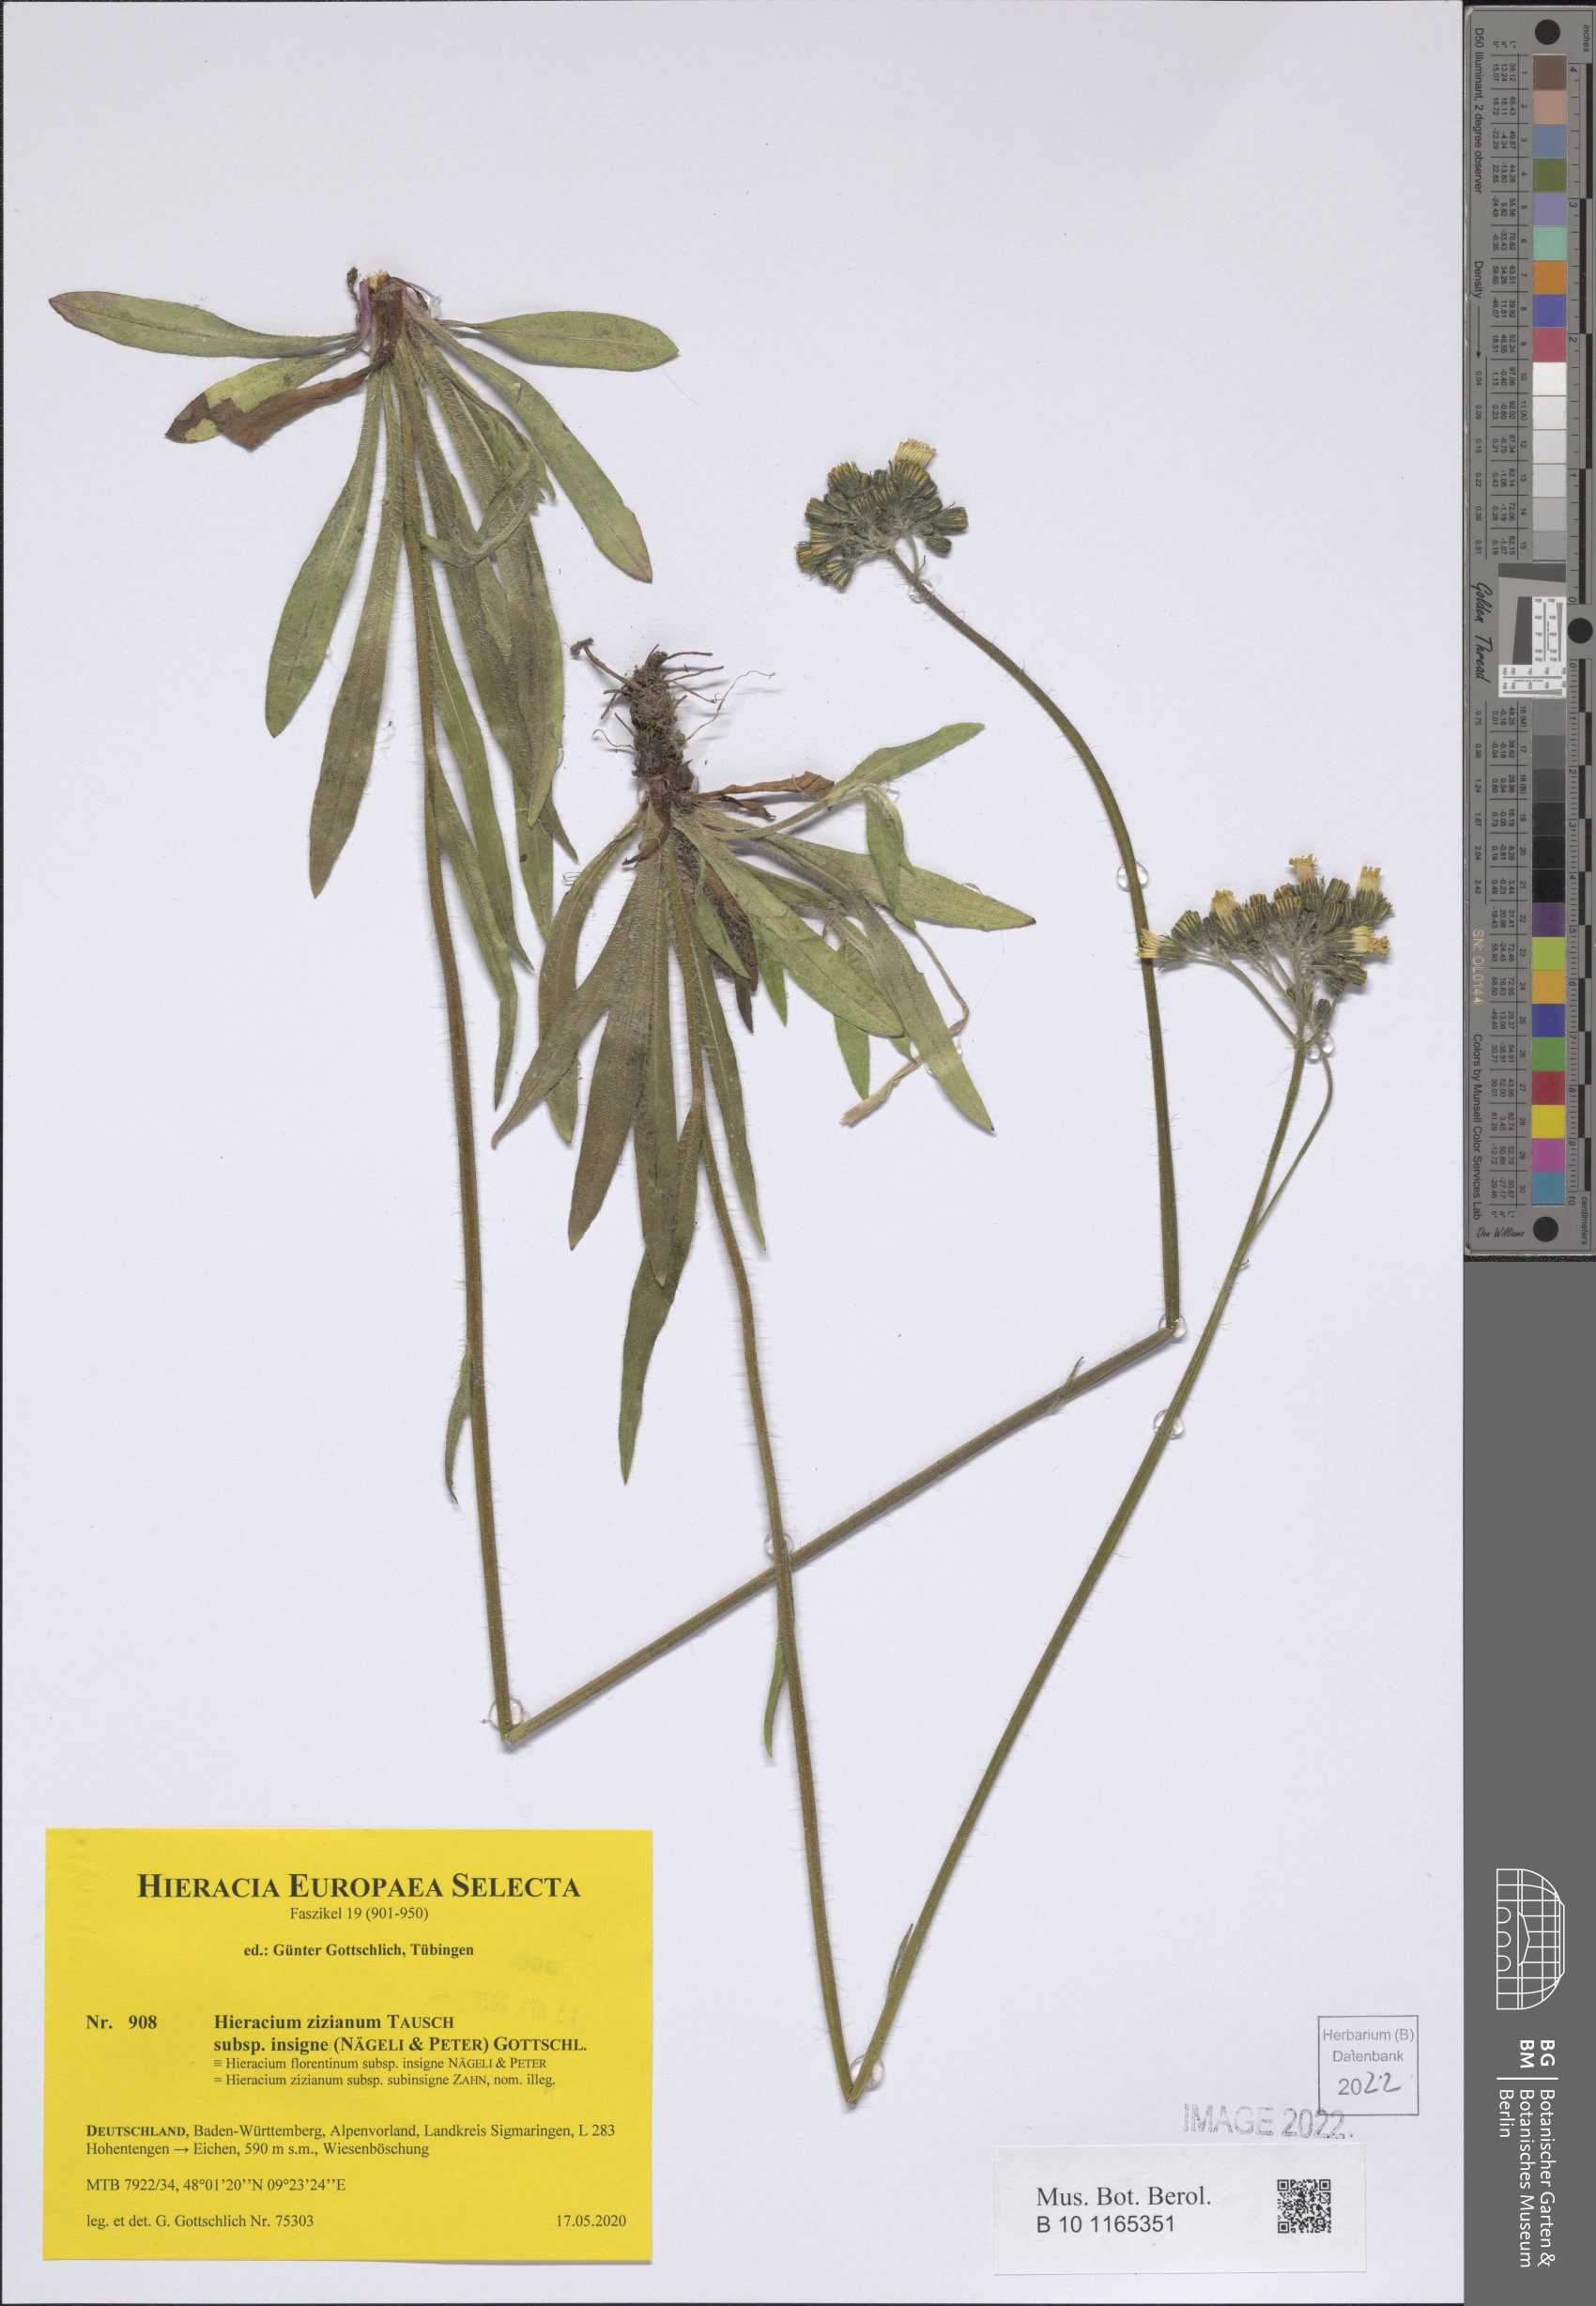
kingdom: Plantae
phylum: Tracheophyta
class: Magnoliopsida
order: Asterales
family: Asteraceae
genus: Pilosella
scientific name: Pilosella ziziana
